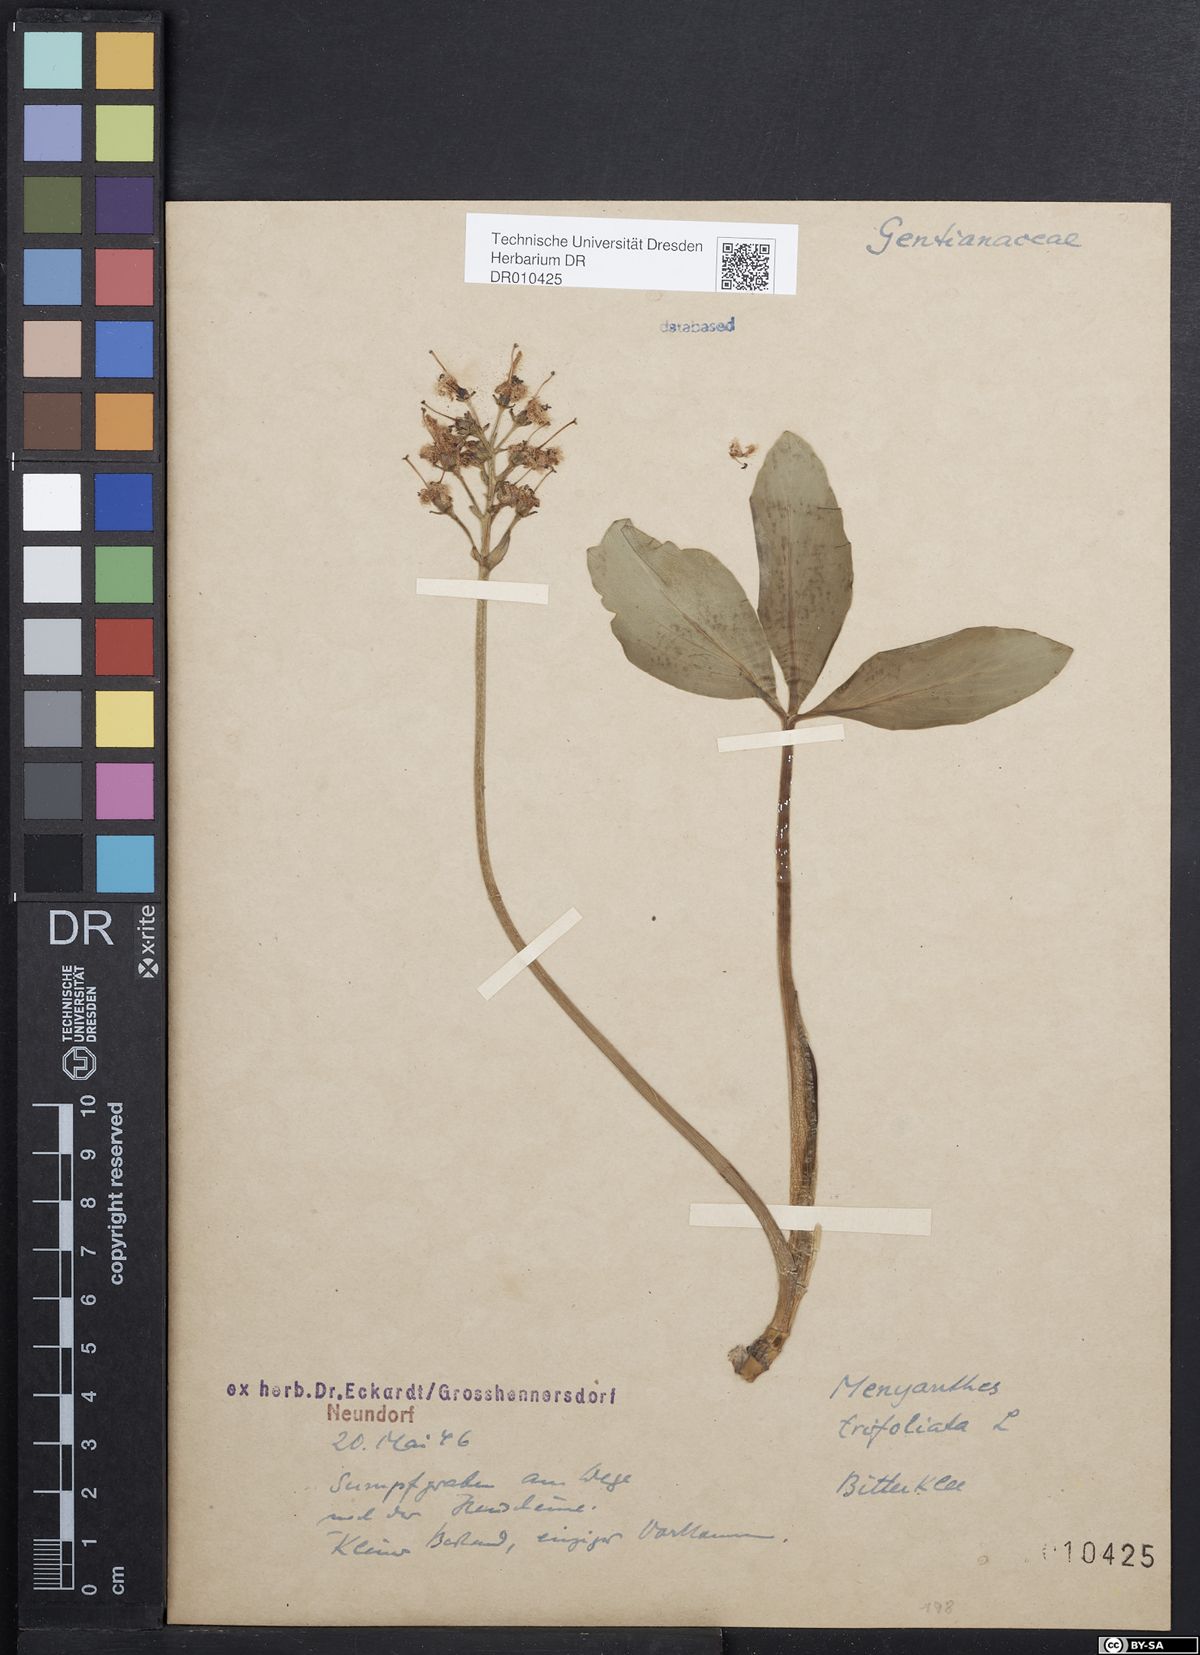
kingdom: Plantae
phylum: Tracheophyta
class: Magnoliopsida
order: Asterales
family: Menyanthaceae
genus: Menyanthes
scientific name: Menyanthes trifoliata
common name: Bogbean
